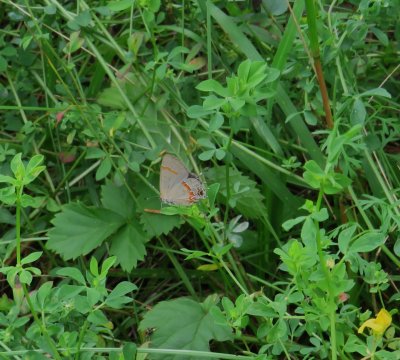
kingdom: Animalia
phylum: Arthropoda
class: Insecta
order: Lepidoptera
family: Lycaenidae
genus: Calycopis
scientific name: Calycopis cecrops
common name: Red-banded Hairstreak
